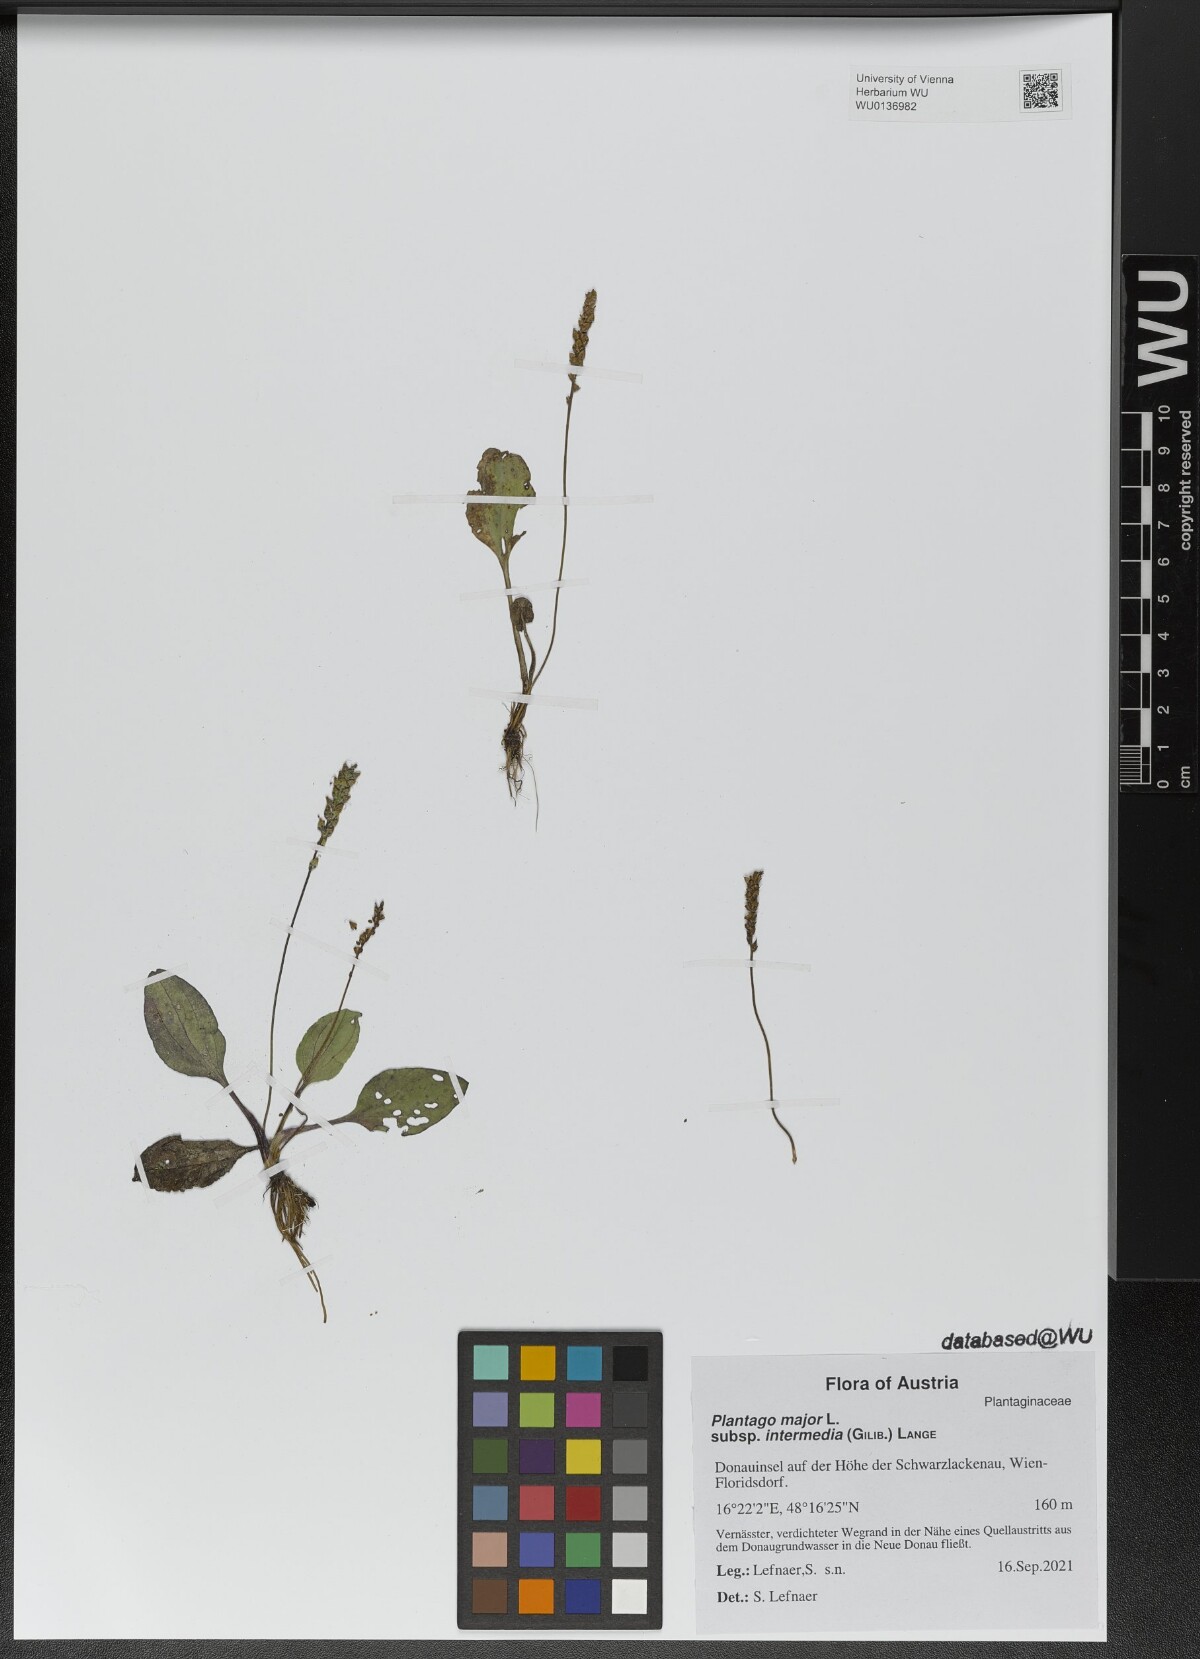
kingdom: Plantae
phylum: Tracheophyta
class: Magnoliopsida
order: Lamiales
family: Plantaginaceae
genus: Plantago
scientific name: Plantago uliginosa
